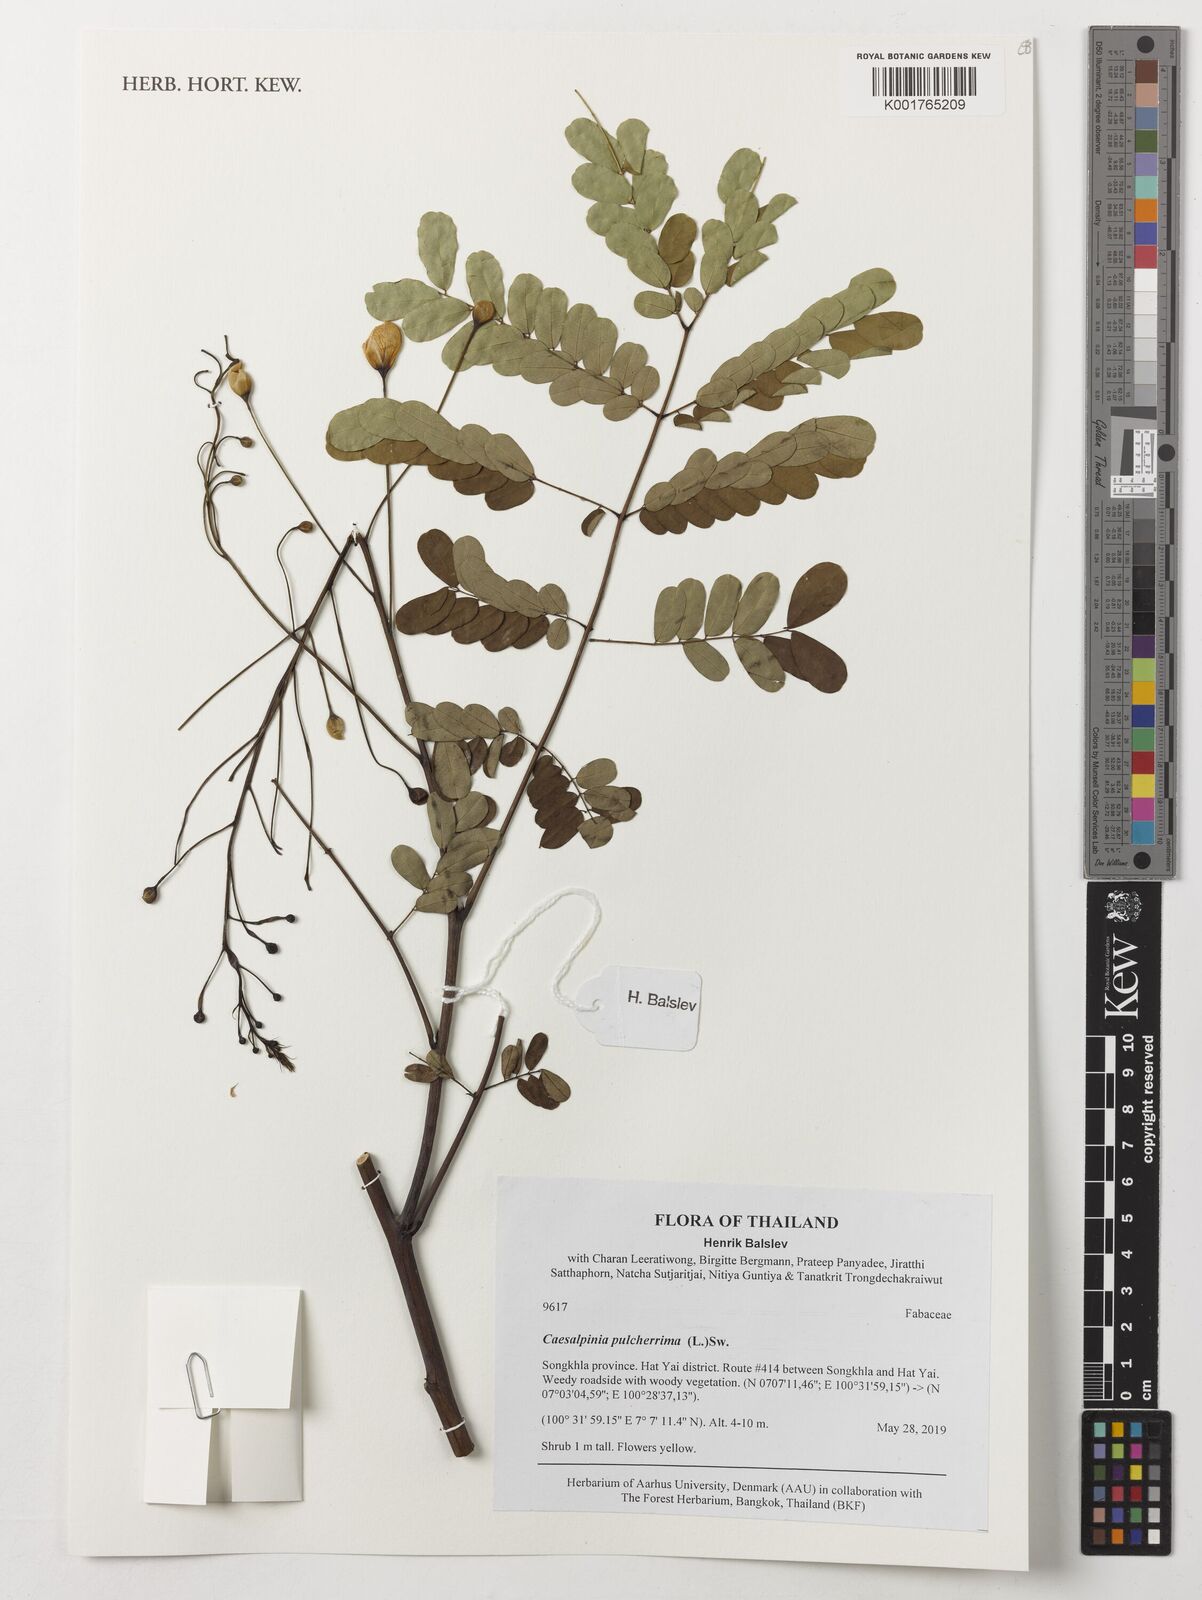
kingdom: Plantae
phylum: Tracheophyta
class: Magnoliopsida
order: Fabales
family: Fabaceae
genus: Caesalpinia
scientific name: Caesalpinia pulcherrima
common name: Pride-of-barbados
